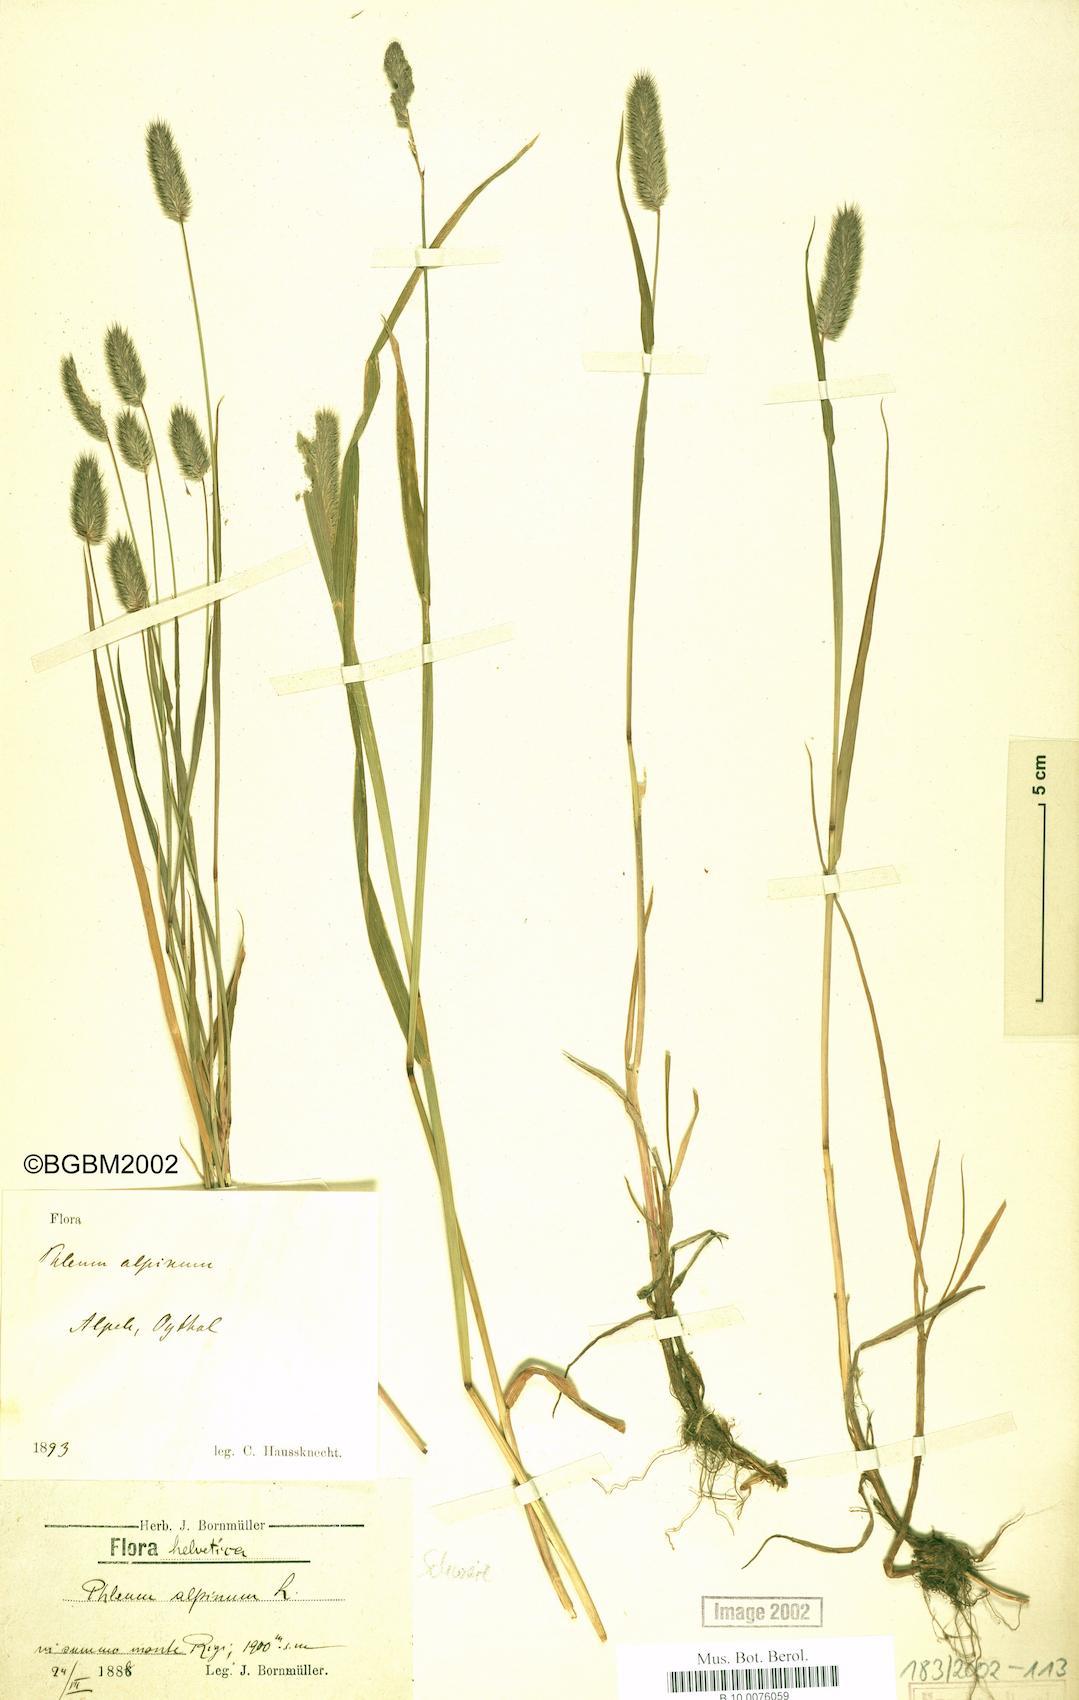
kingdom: Plantae
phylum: Tracheophyta
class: Liliopsida
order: Poales
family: Poaceae
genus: Phleum
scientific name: Phleum alpinum
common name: Alpine cat's-tail
